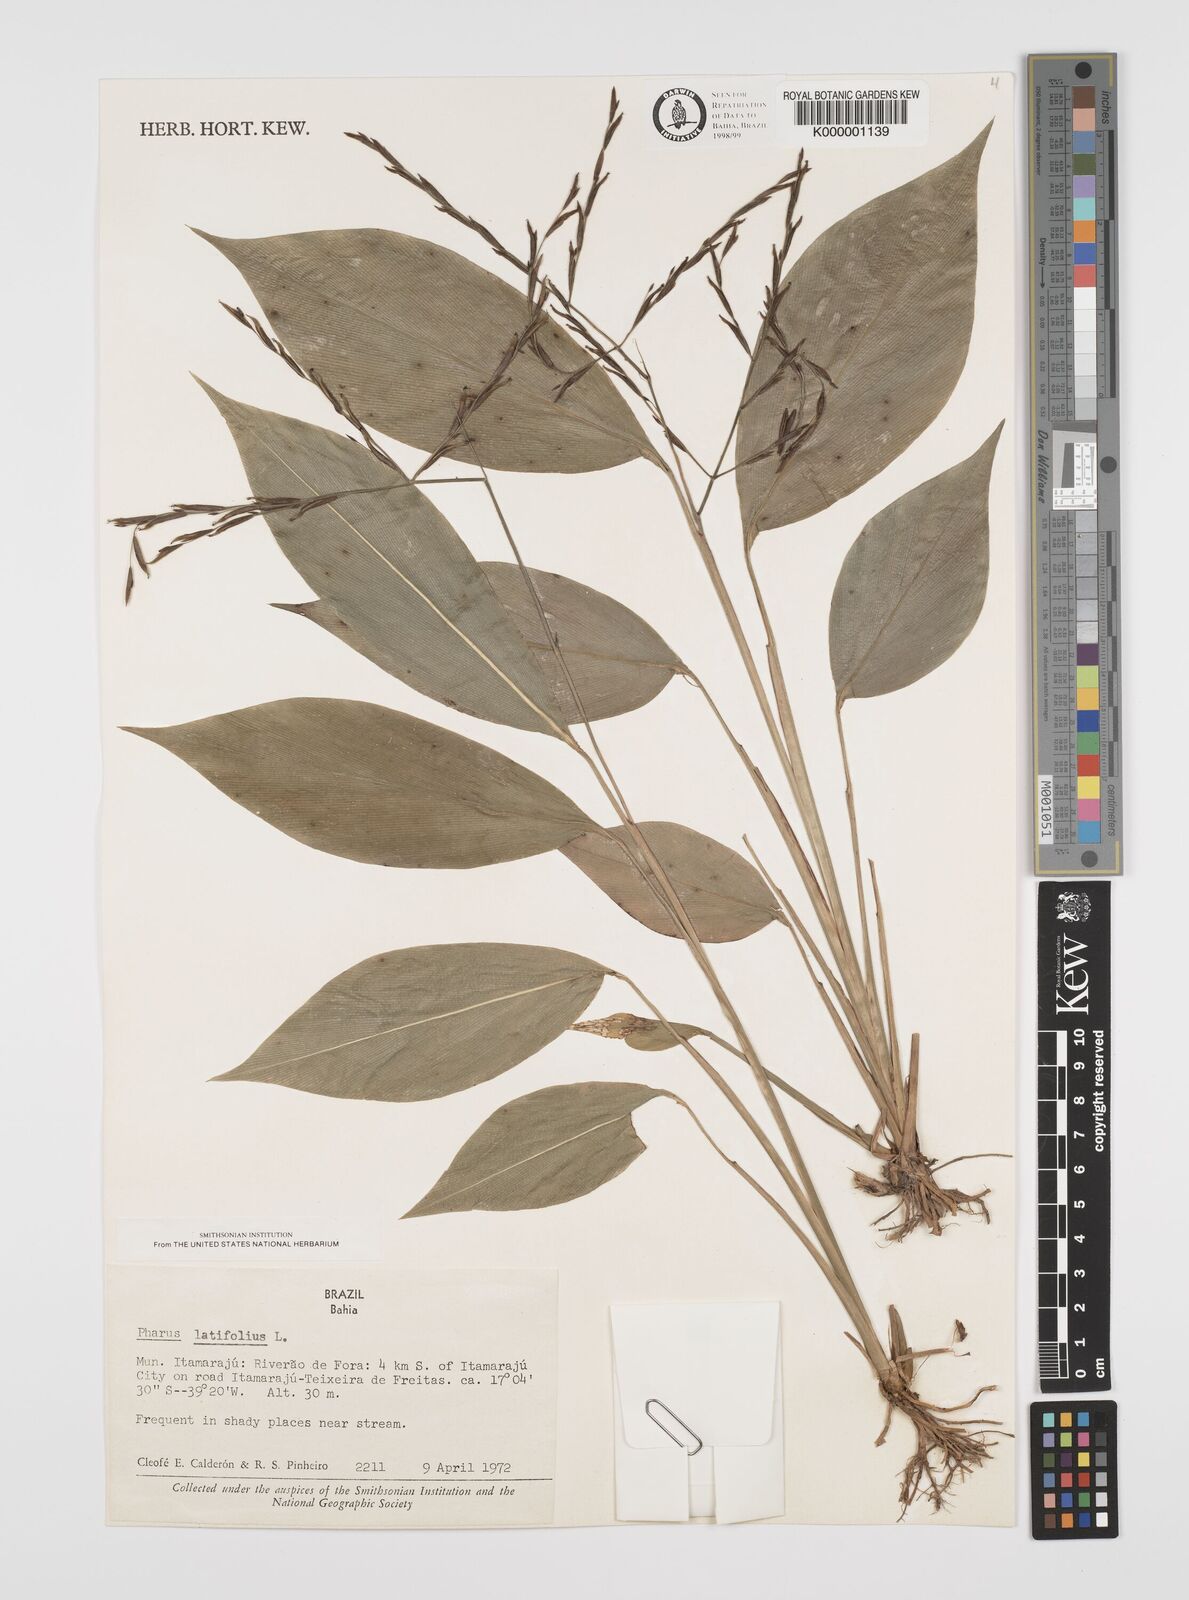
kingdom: Plantae
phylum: Tracheophyta
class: Liliopsida
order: Poales
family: Poaceae
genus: Pharus
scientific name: Pharus latifolius
